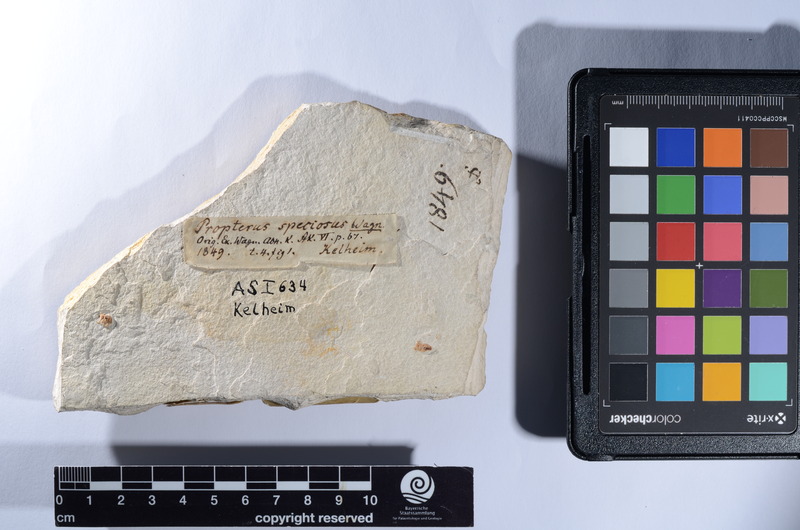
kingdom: Animalia
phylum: Chordata
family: Macrosemiidae
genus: Propterus
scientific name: Propterus elongatus
